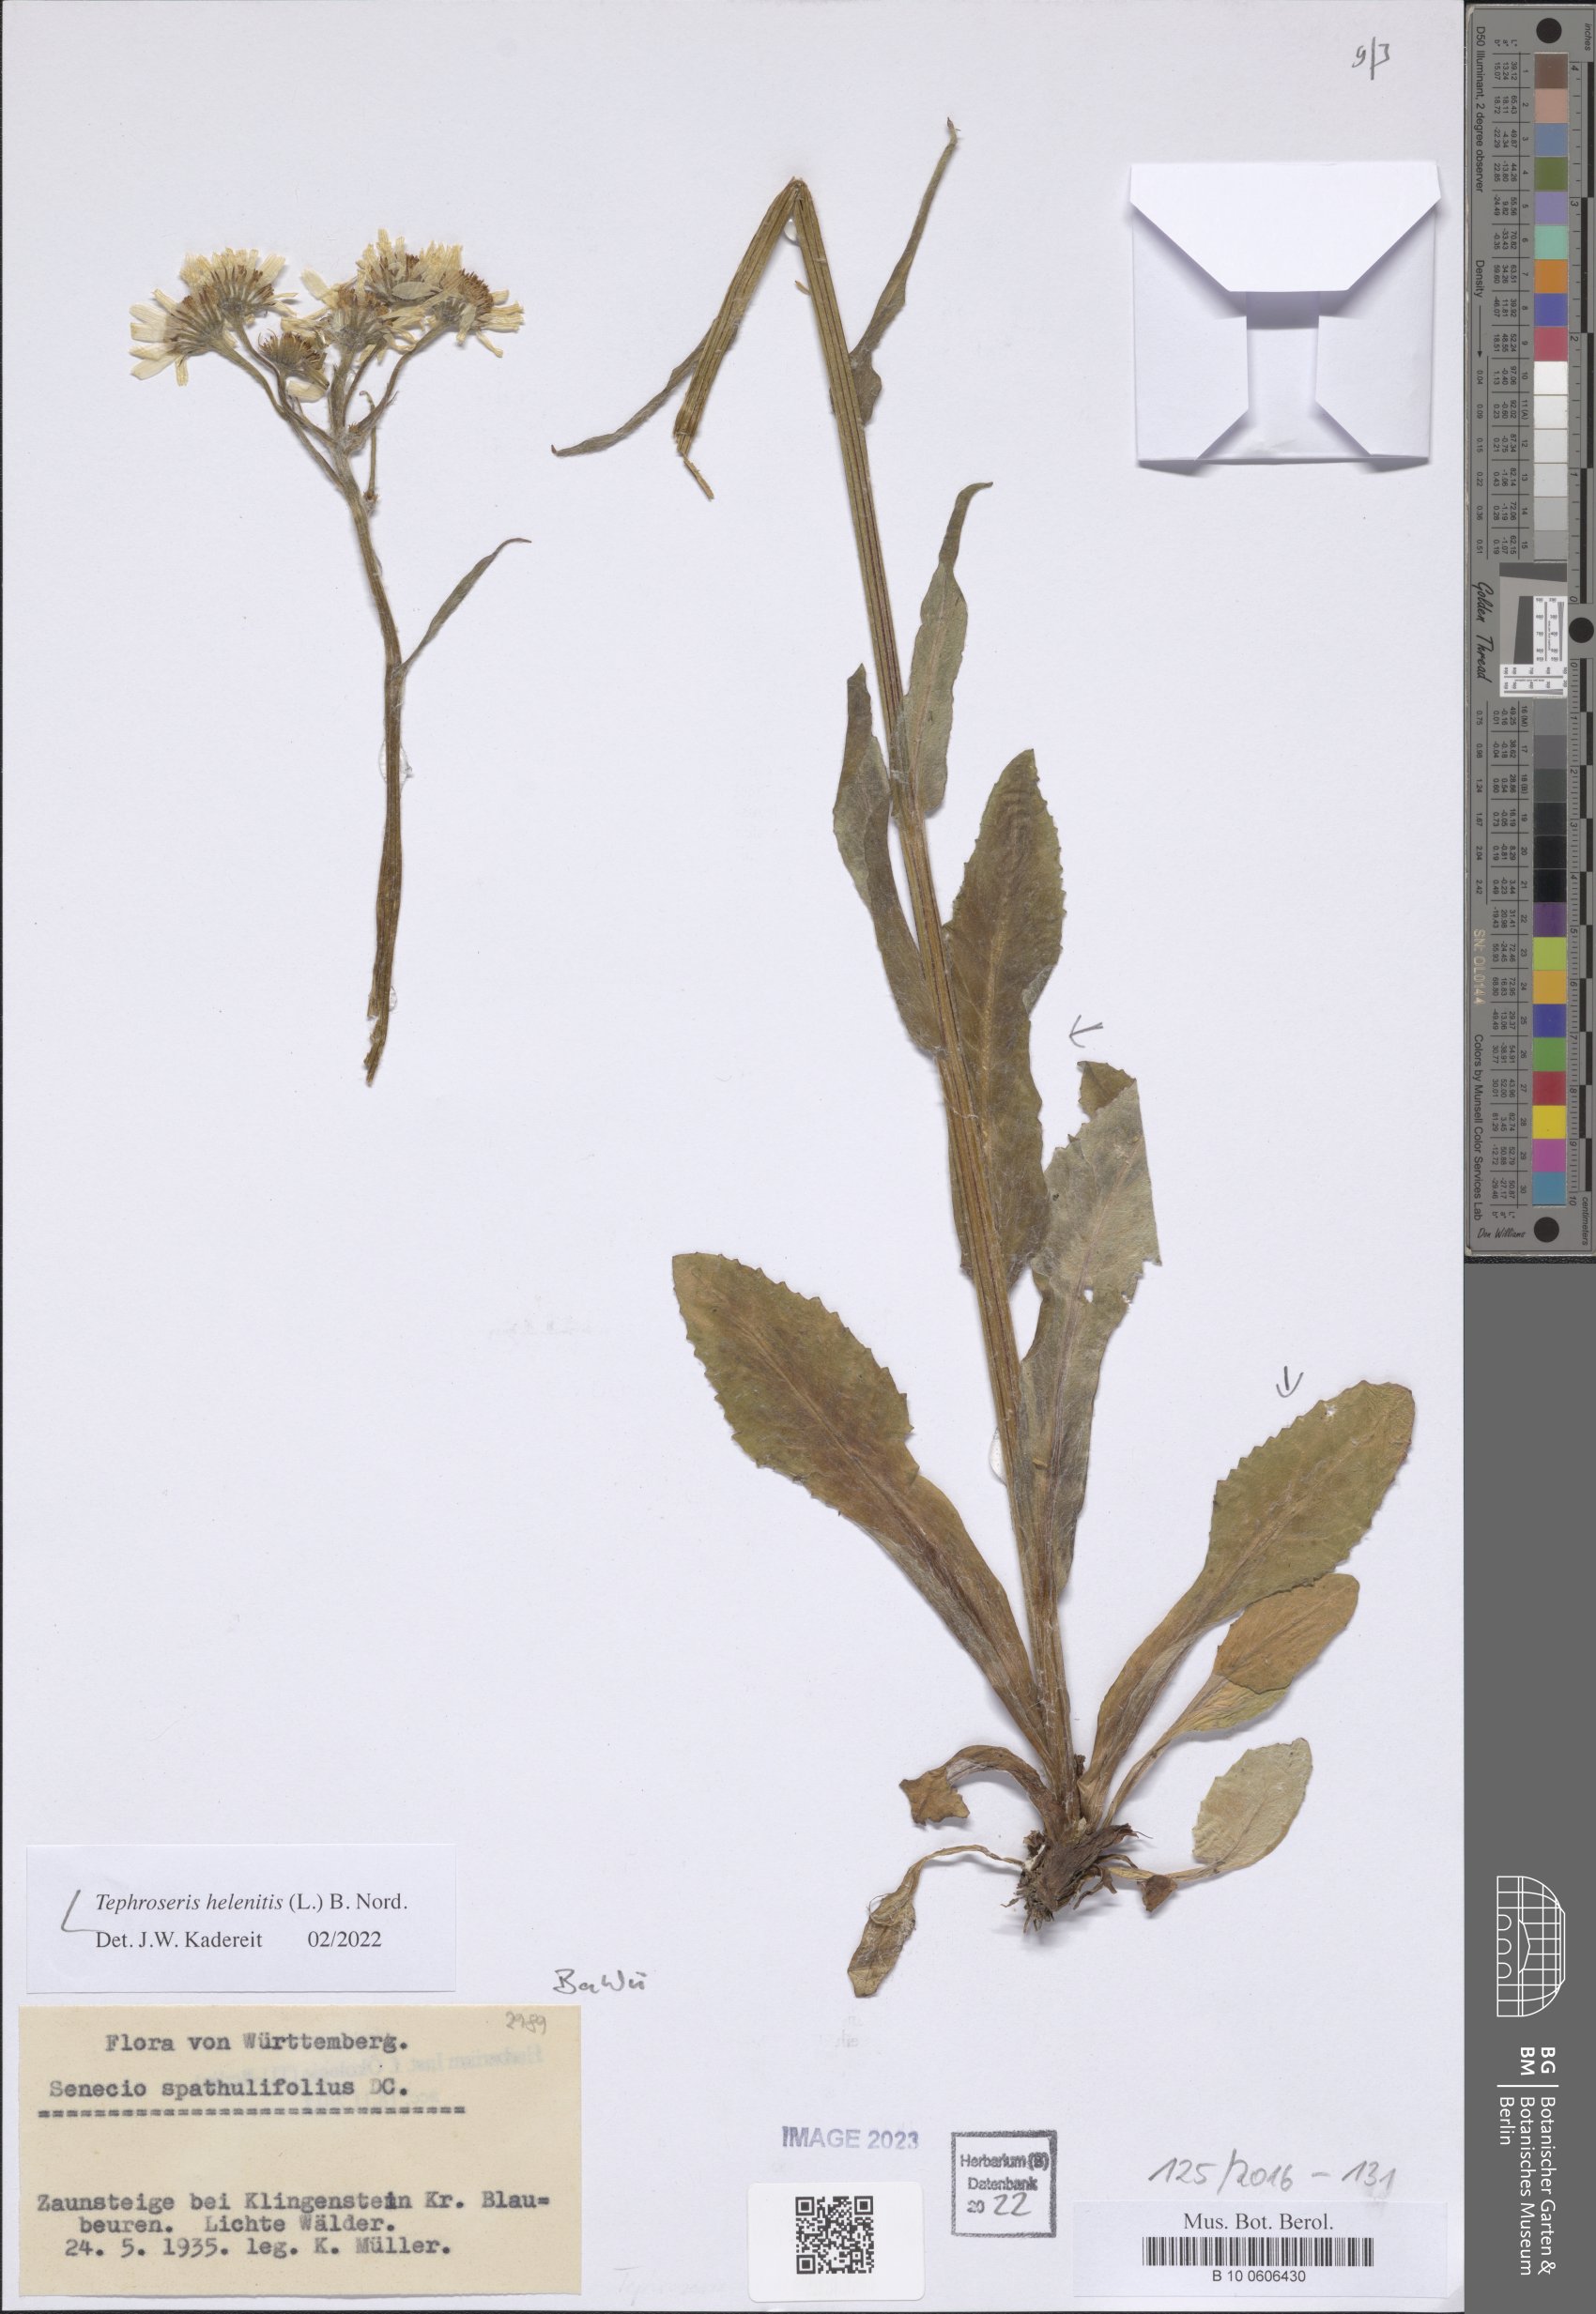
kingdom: Plantae
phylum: Tracheophyta
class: Magnoliopsida
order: Asterales
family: Asteraceae
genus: Tephroseris
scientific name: Tephroseris helenitis
